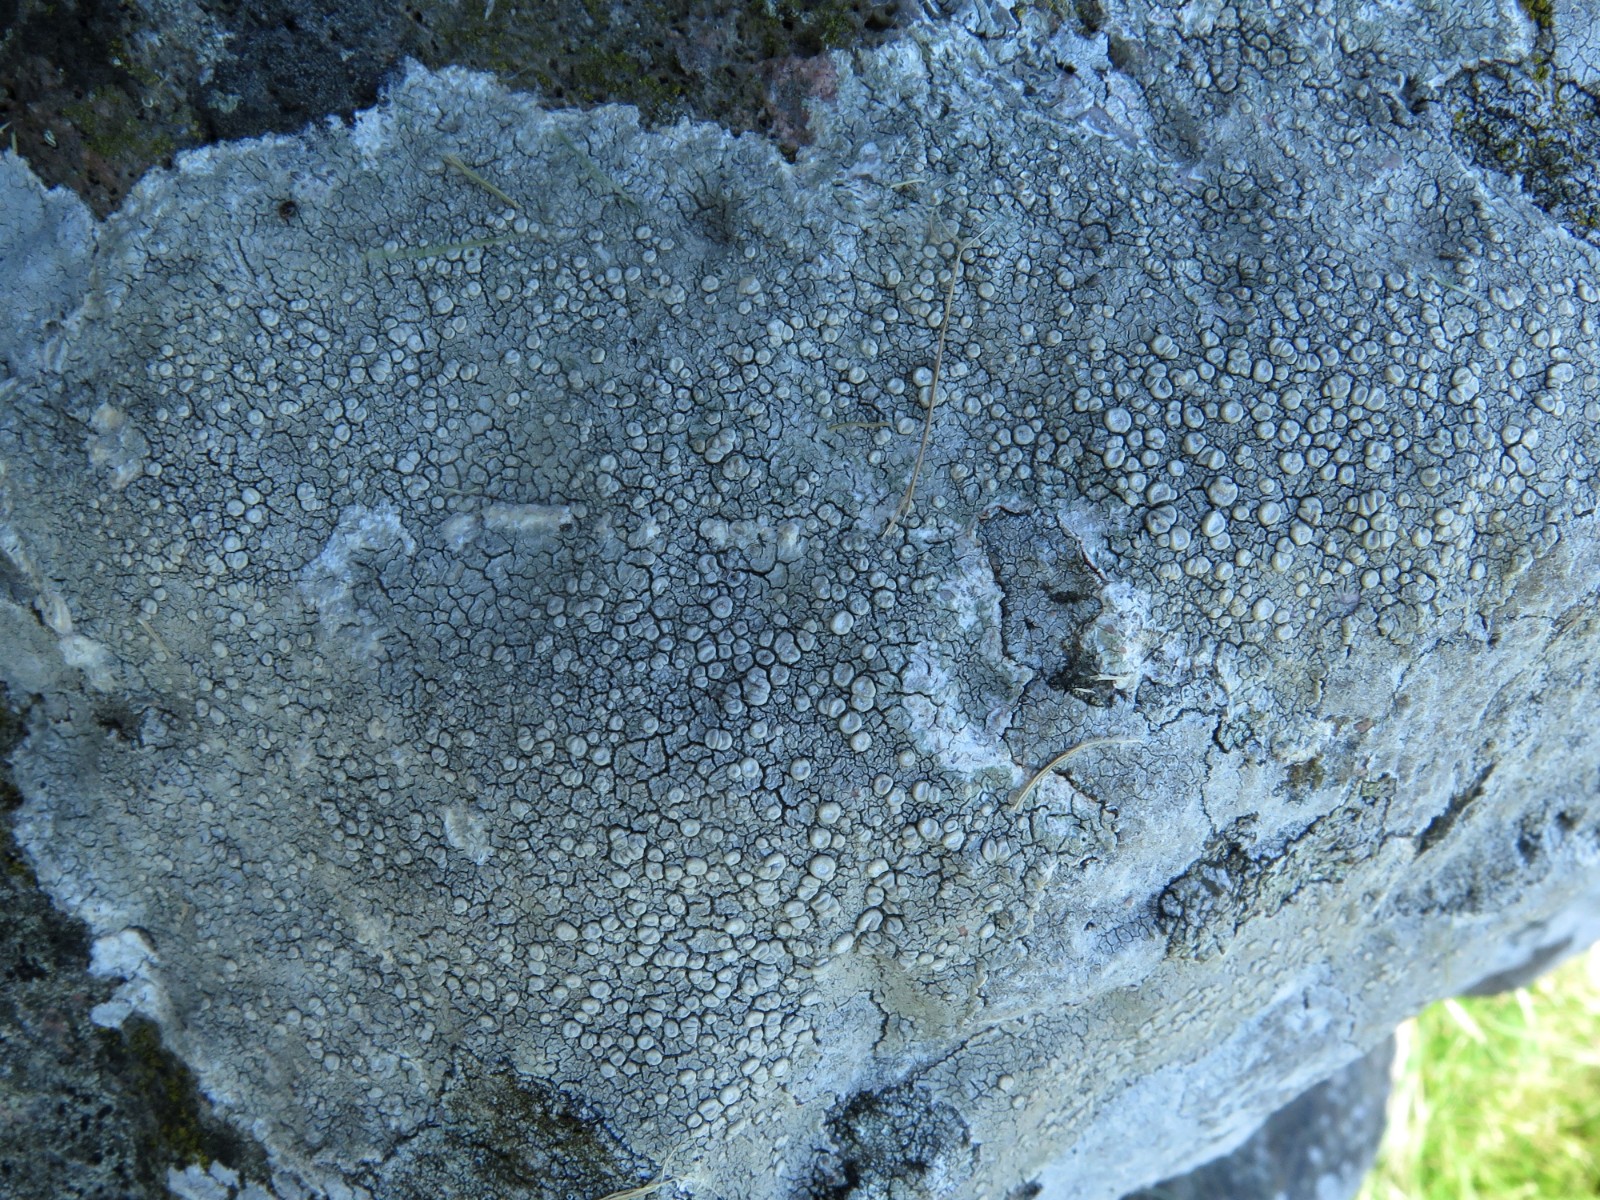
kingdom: Fungi
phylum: Ascomycota
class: Lecanoromycetes
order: Pertusariales
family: Ochrolechiaceae
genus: Ochrolechia
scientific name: Ochrolechia parella
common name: almindelig blegskivelav
